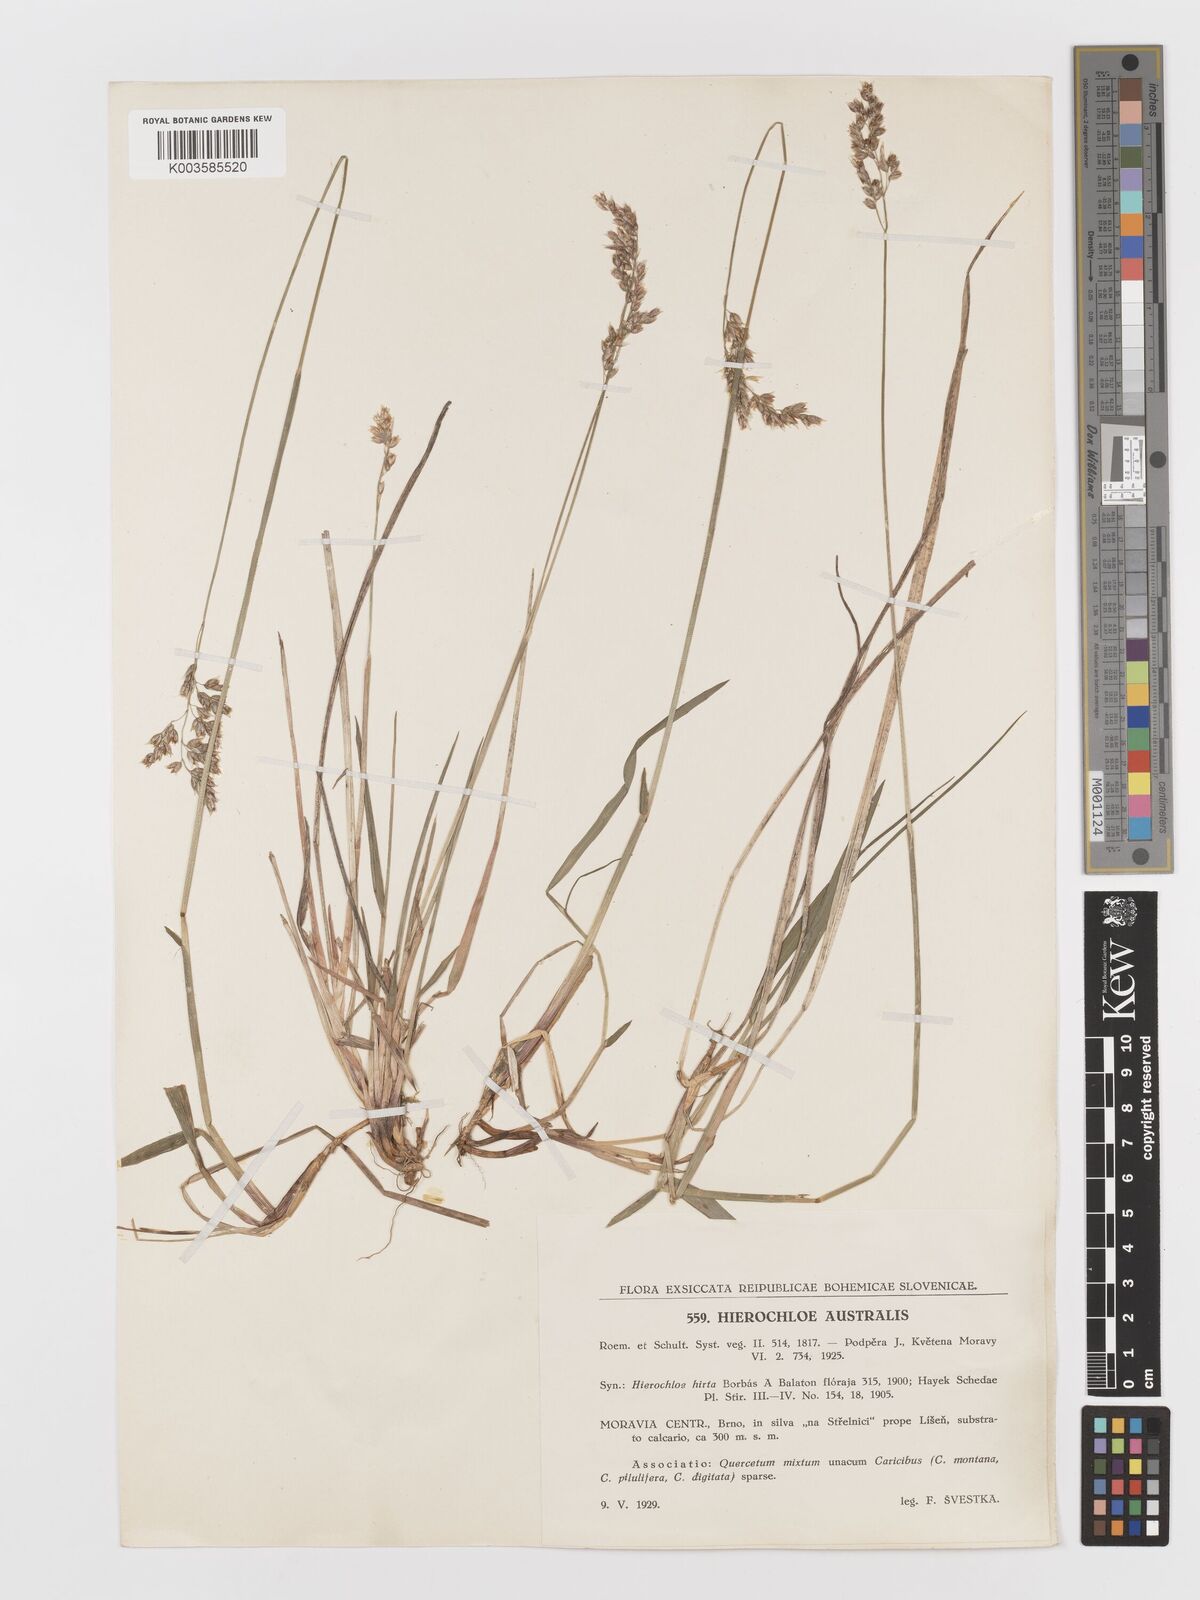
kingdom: Plantae
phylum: Tracheophyta
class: Liliopsida
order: Poales
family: Poaceae
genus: Anthoxanthum
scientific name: Anthoxanthum australe
